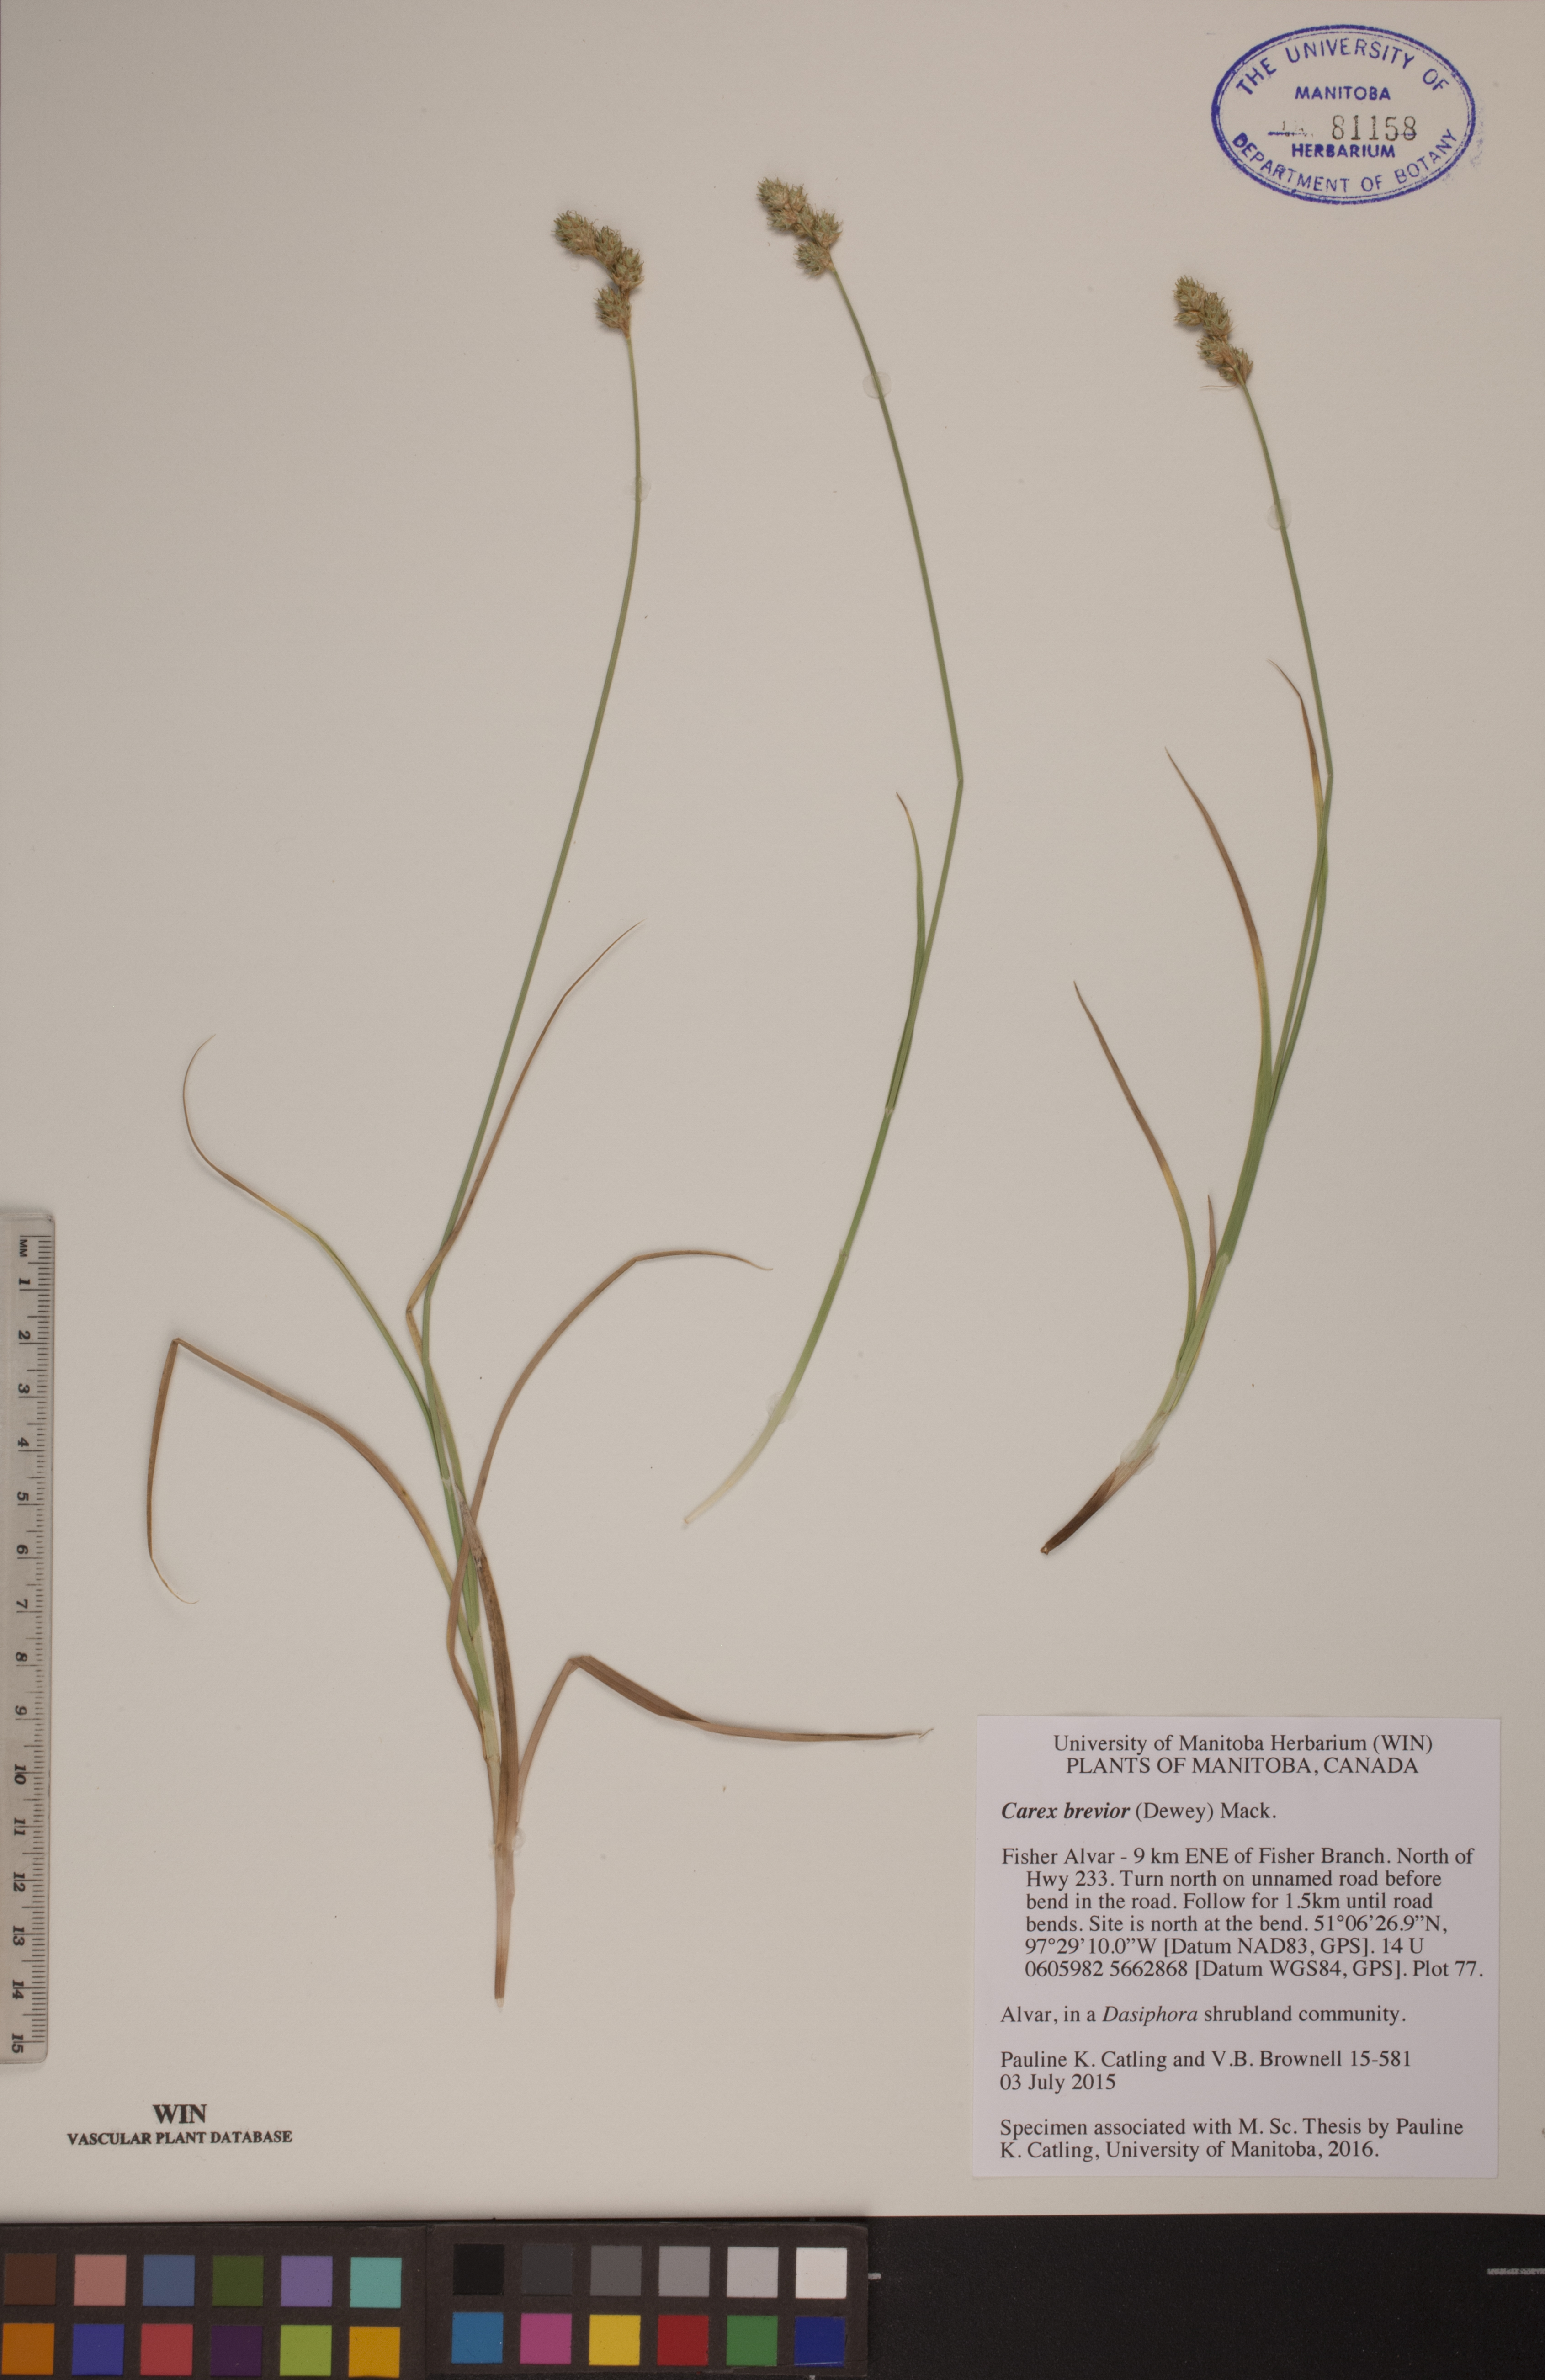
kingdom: Plantae
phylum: Tracheophyta
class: Liliopsida
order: Poales
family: Cyperaceae
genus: Carex
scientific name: Carex brevior
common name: Brevior sedge
